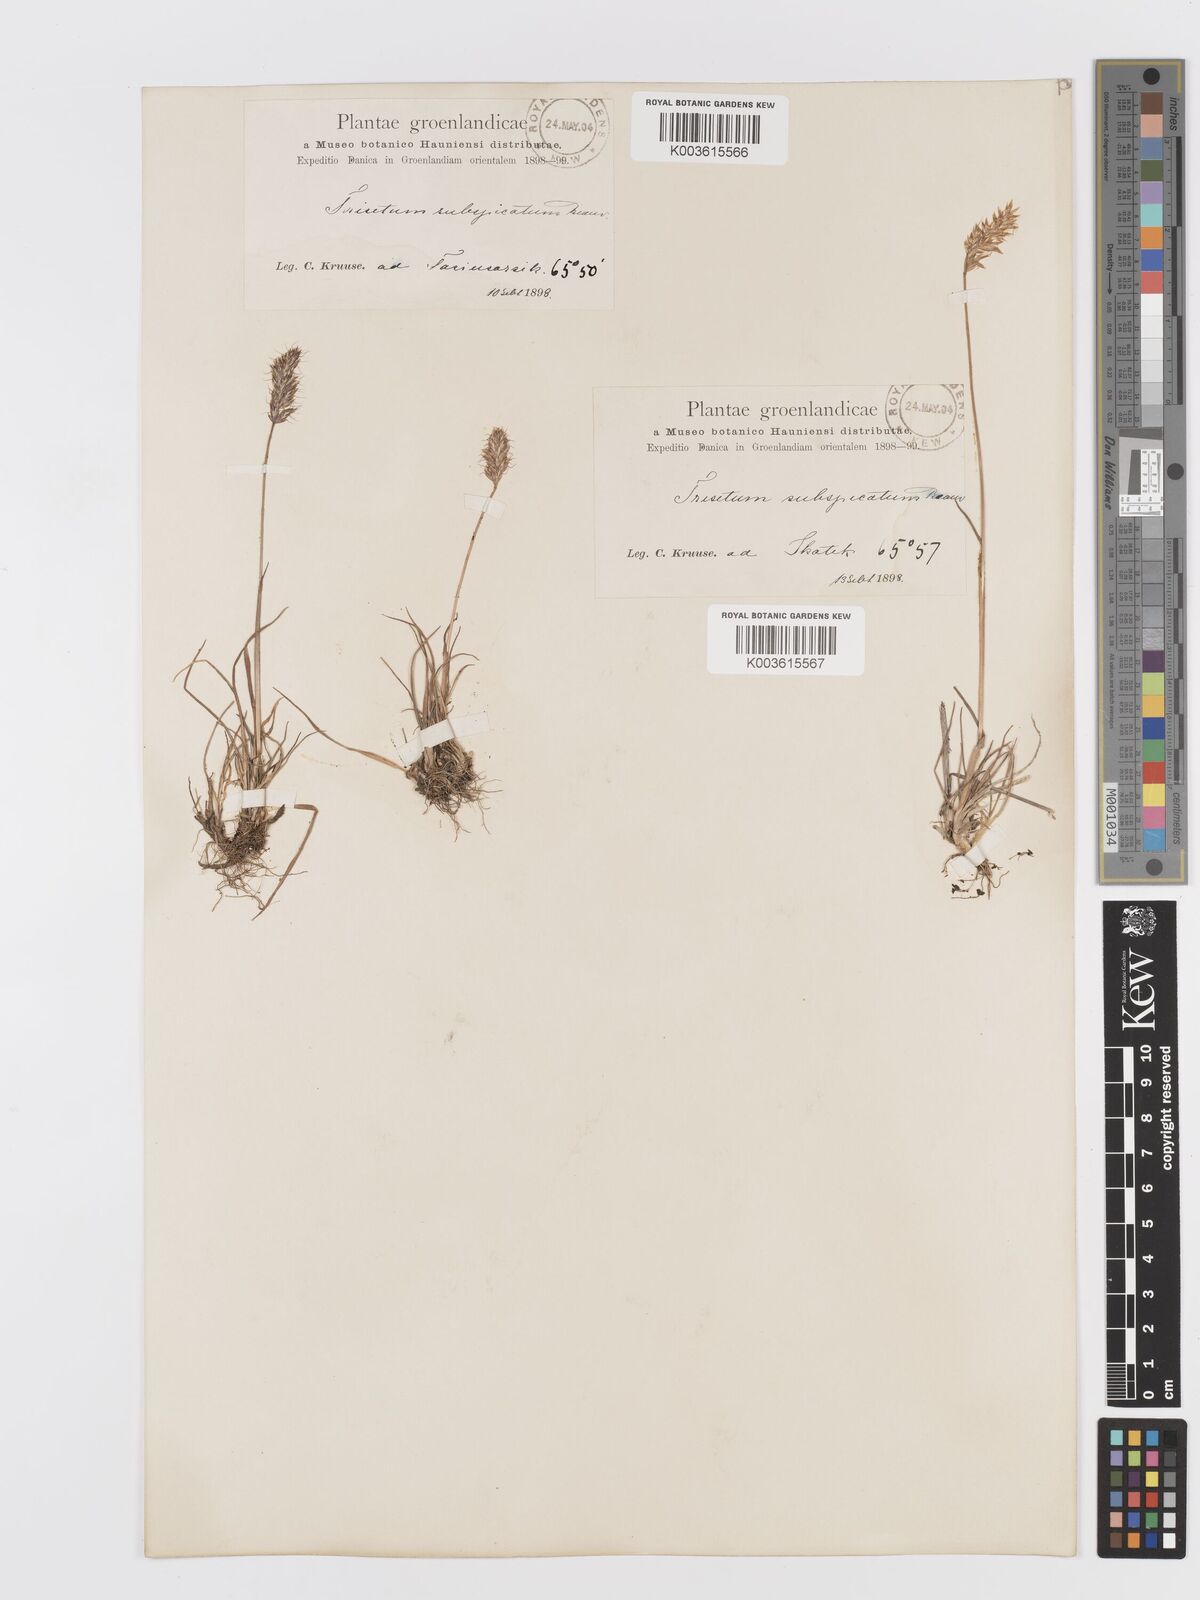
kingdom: Plantae
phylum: Tracheophyta
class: Liliopsida
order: Poales
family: Poaceae
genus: Koeleria
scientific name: Koeleria spicata
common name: Mountain trisetum
